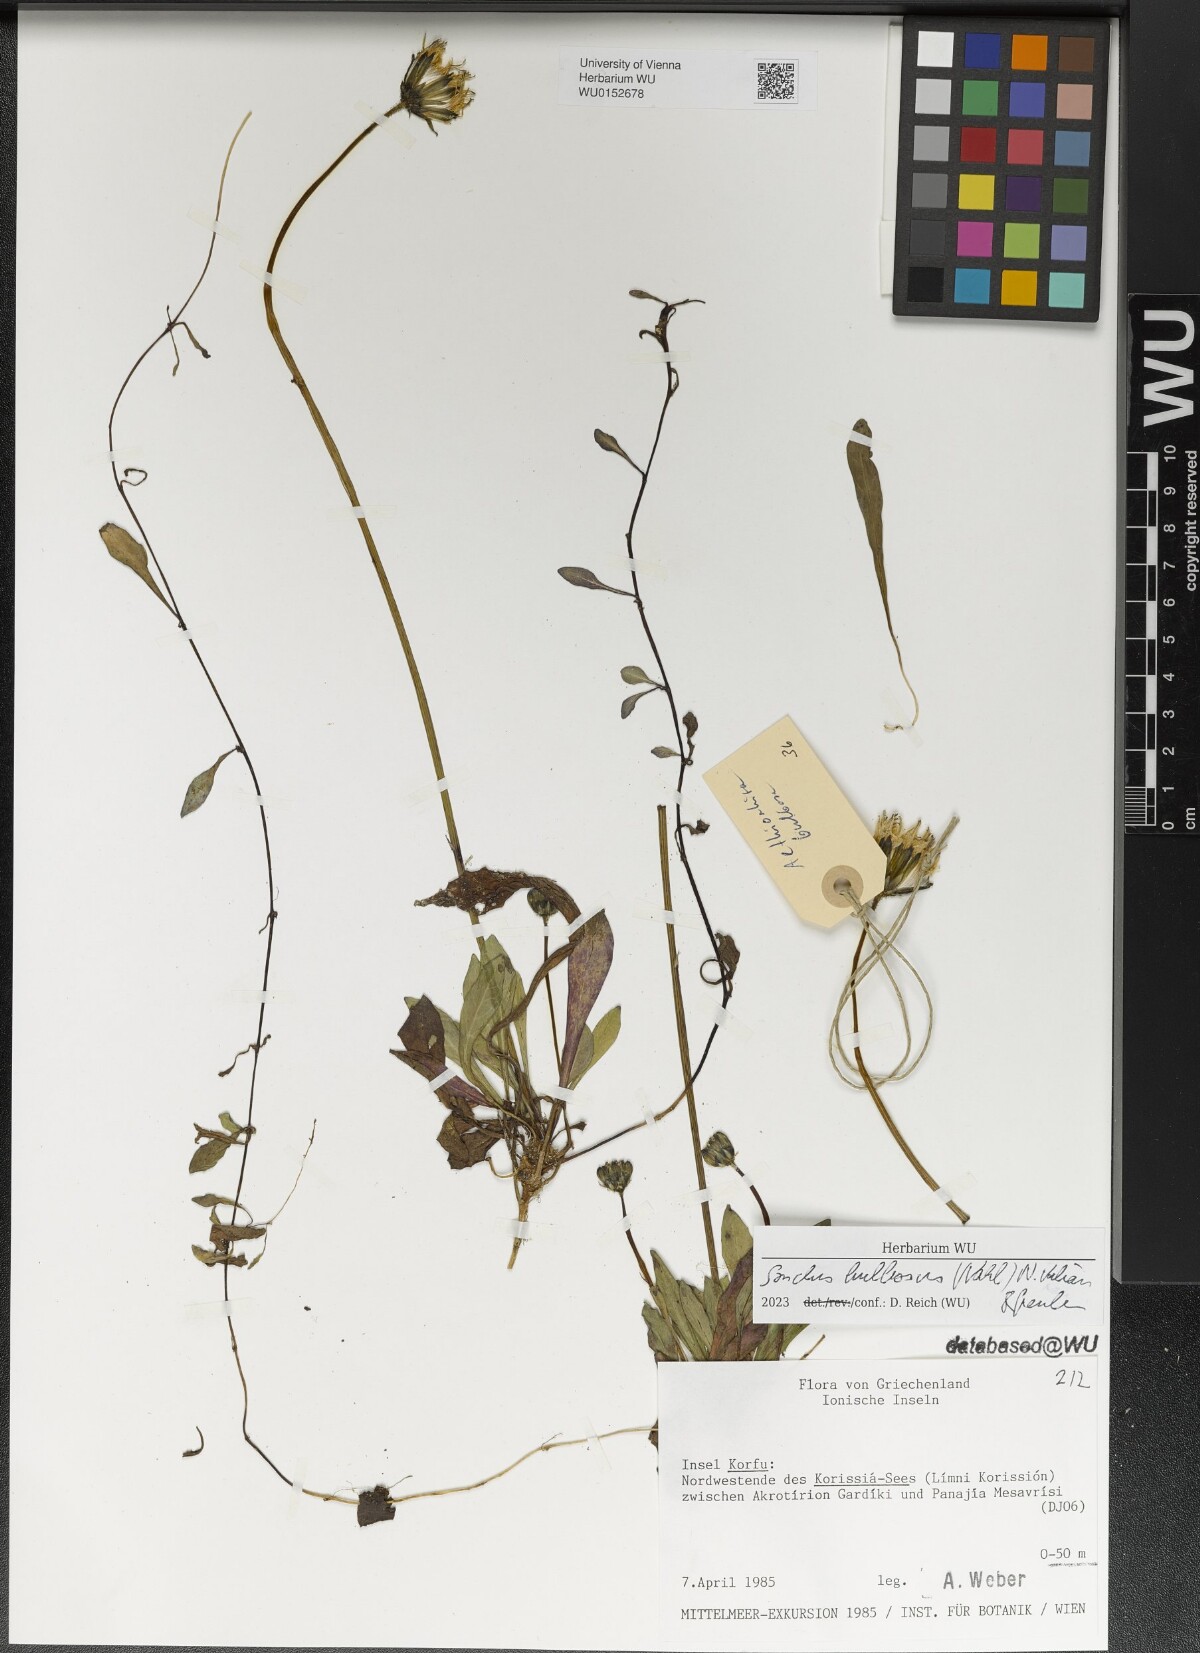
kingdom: Plantae
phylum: Tracheophyta
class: Magnoliopsida
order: Asterales
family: Asteraceae
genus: Aetheorhiza
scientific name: Aetheorhiza bulbosa
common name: Tuberous hawk's-beard
